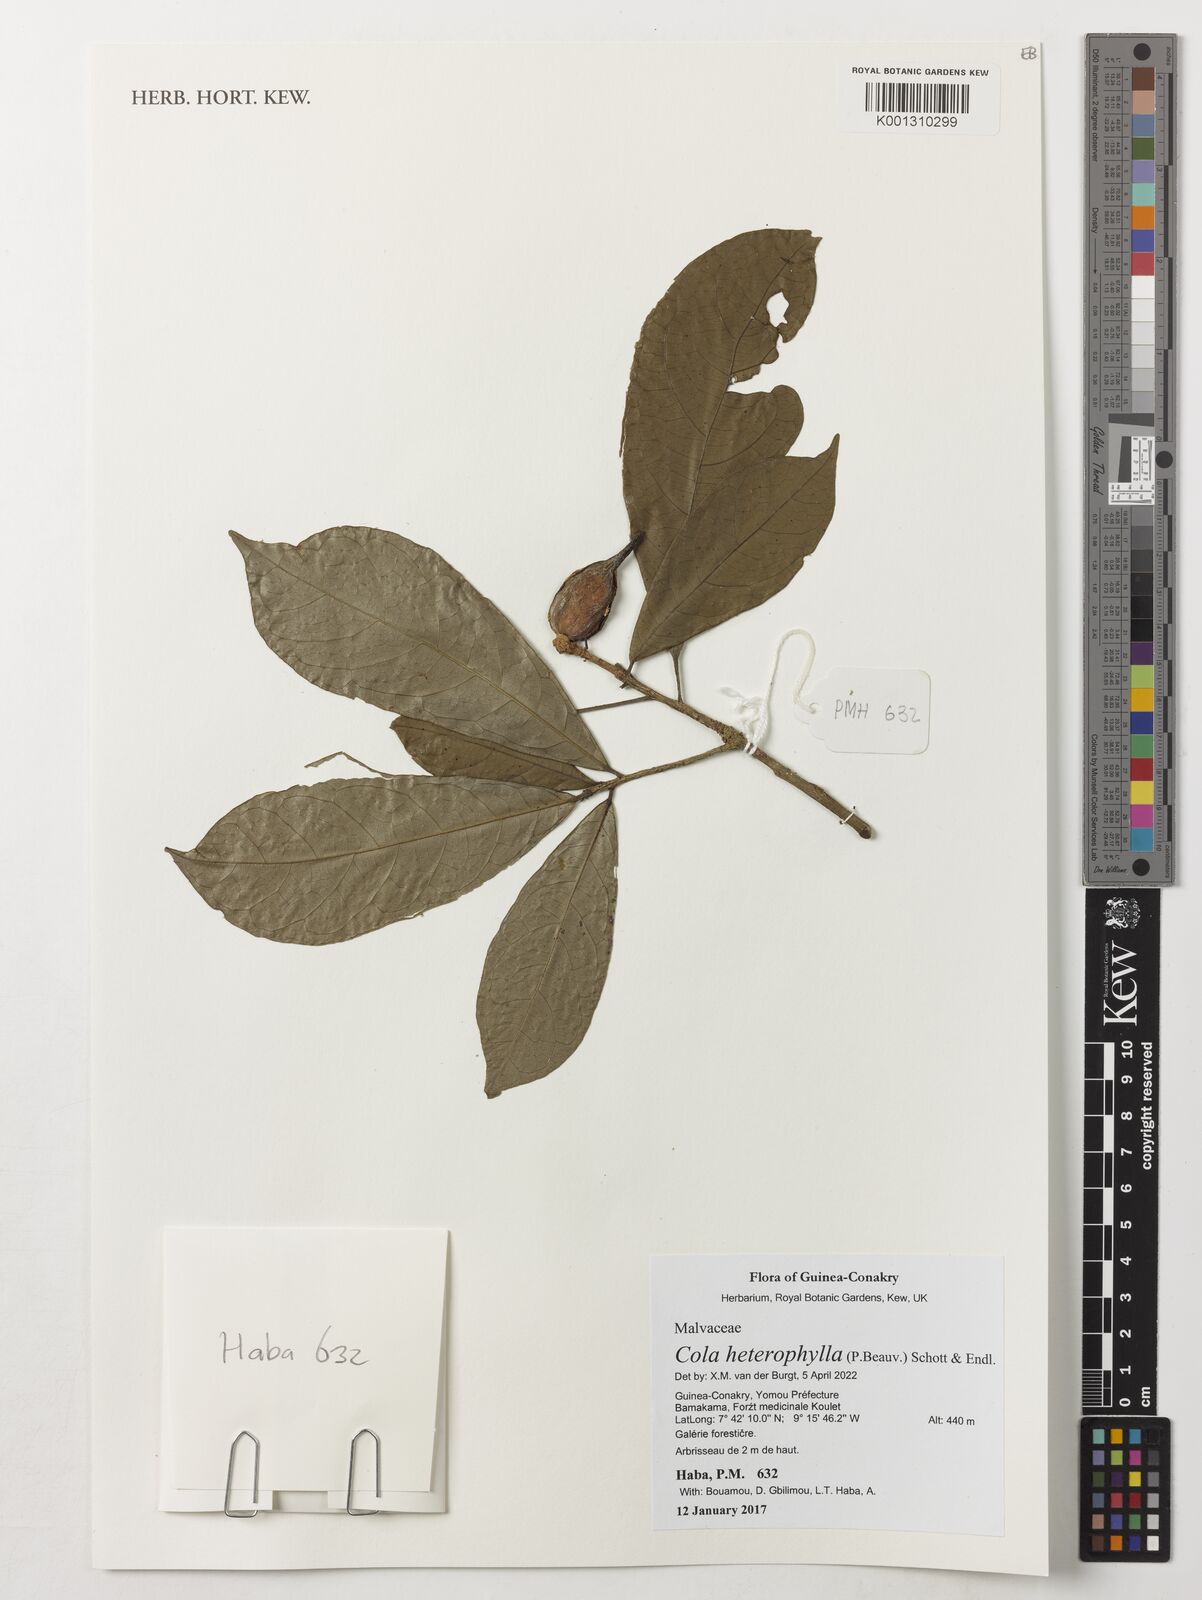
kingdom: Plantae
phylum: Tracheophyta
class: Magnoliopsida
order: Malvales
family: Malvaceae
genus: Cola
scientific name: Cola heterophylla
